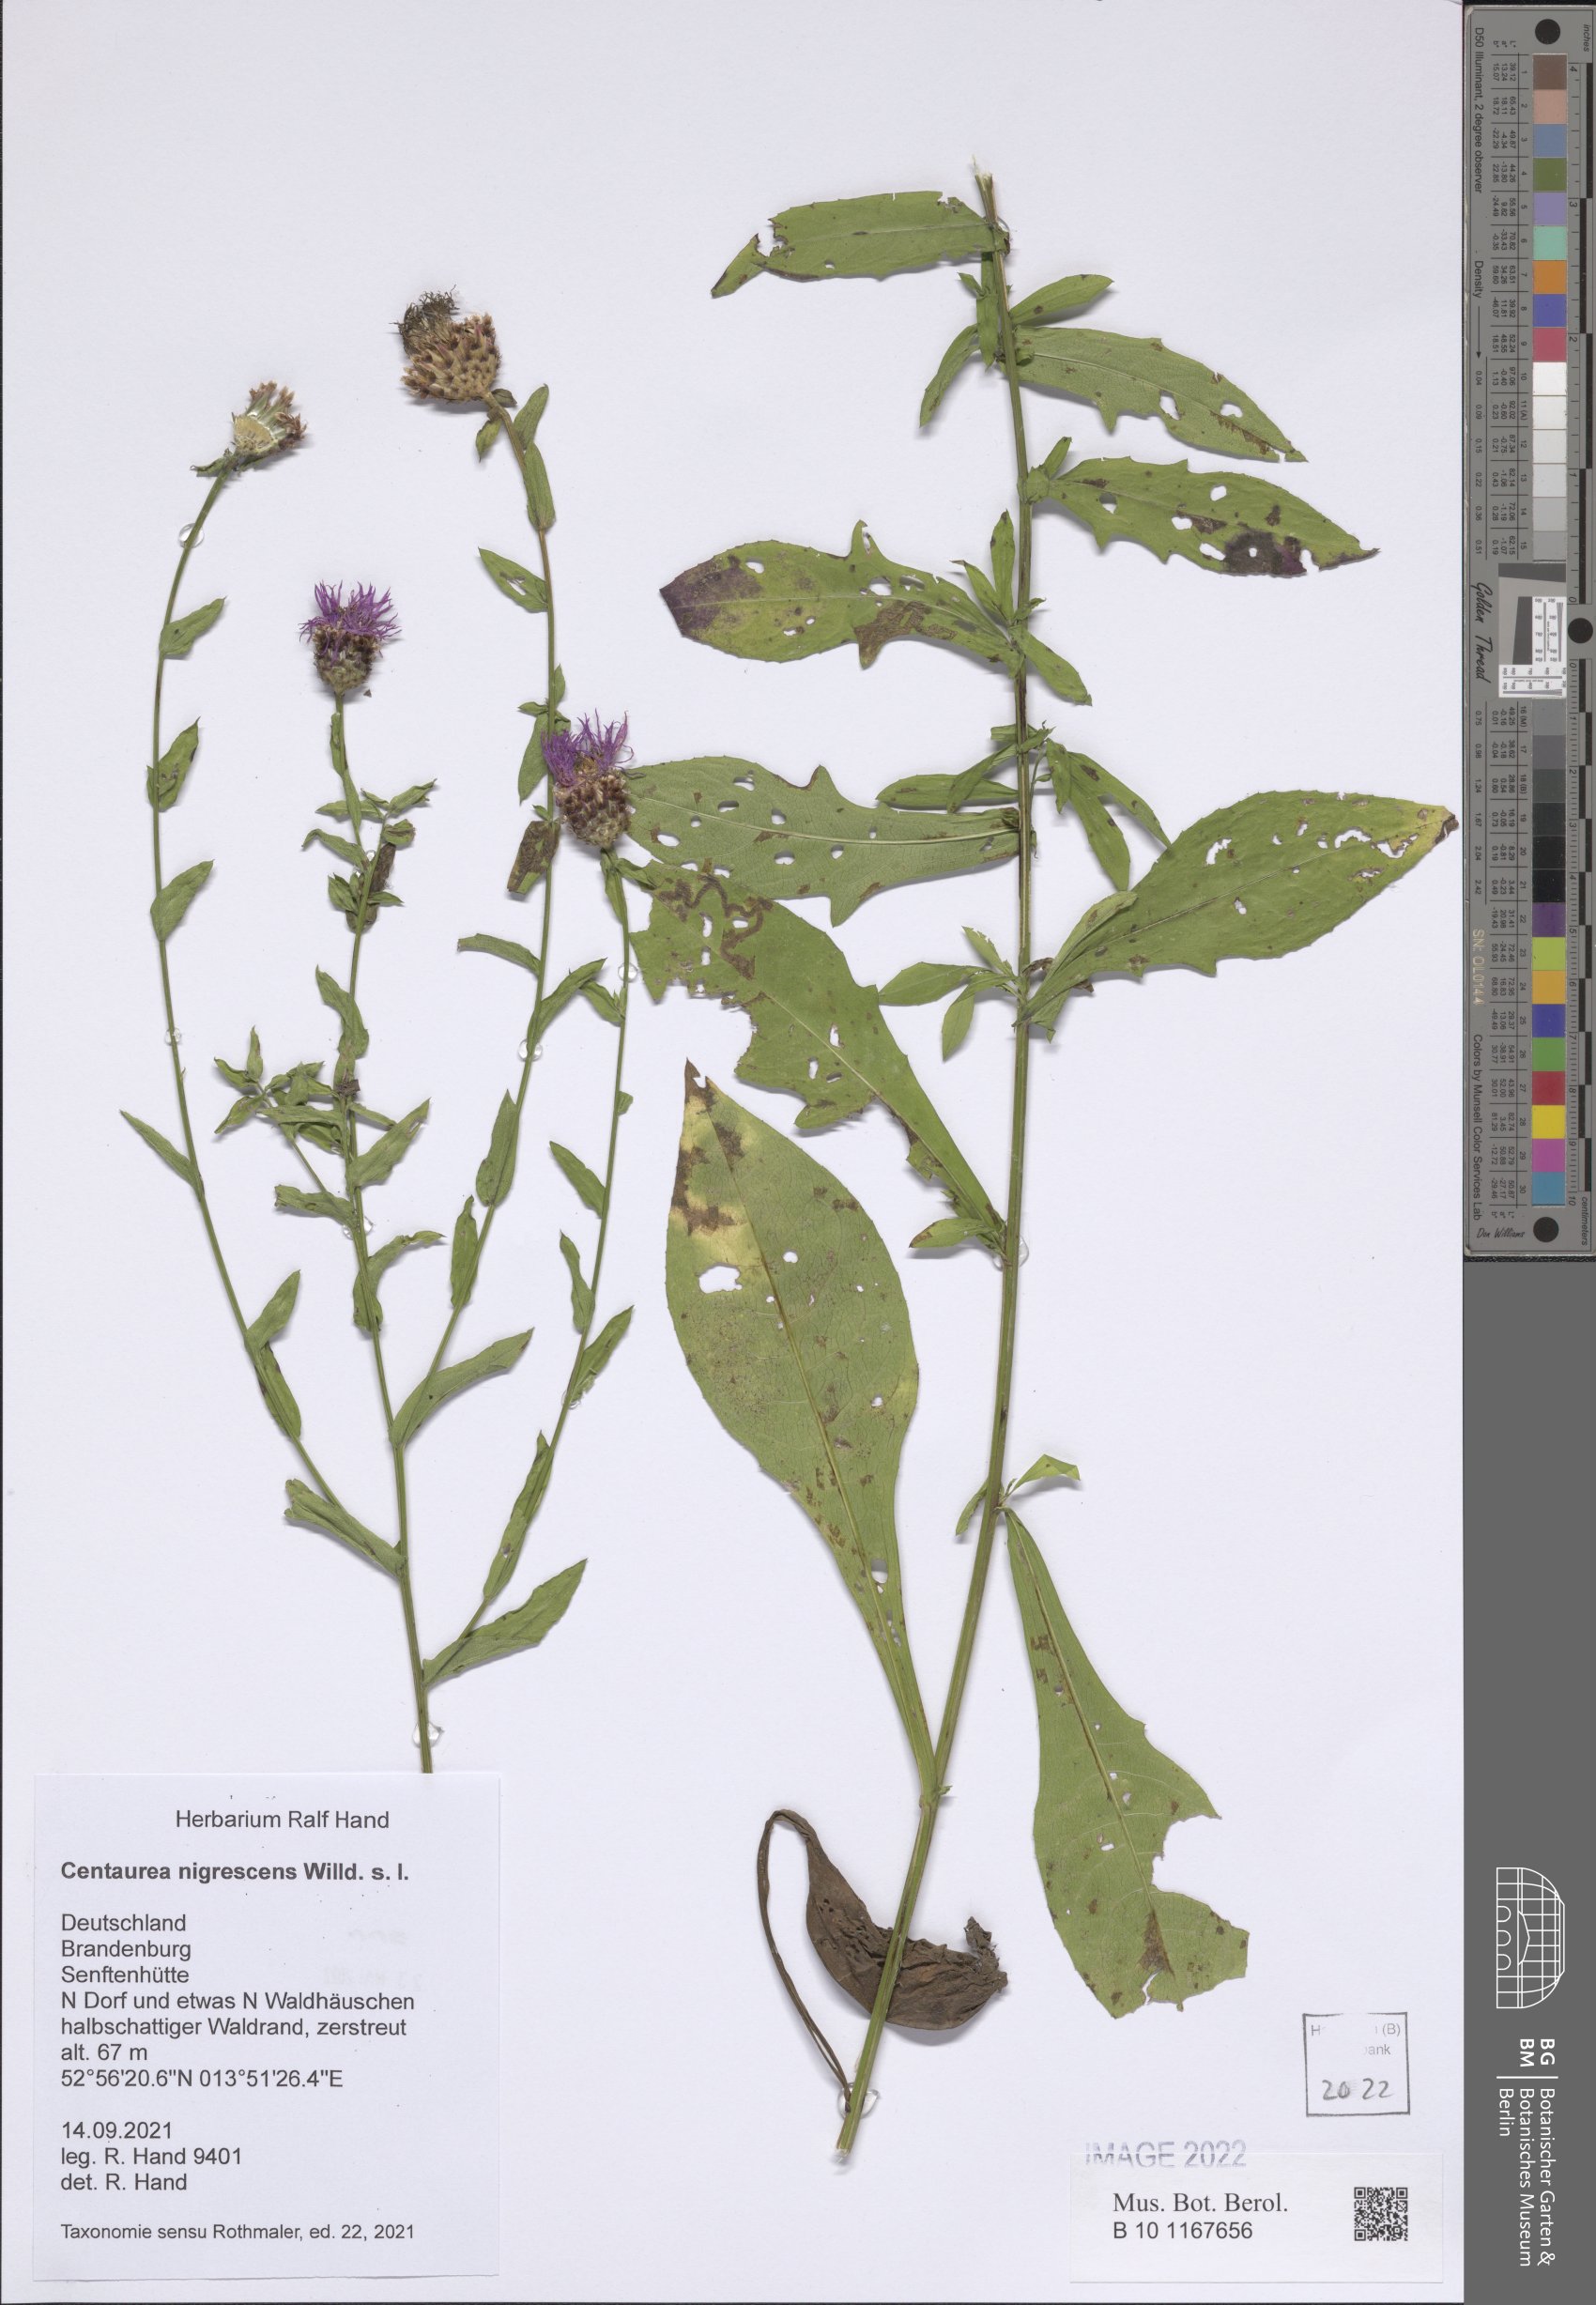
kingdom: Plantae
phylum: Tracheophyta
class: Magnoliopsida
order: Asterales
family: Asteraceae
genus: Centaurea
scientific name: Centaurea nigrescens
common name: Tyrol knapweed
